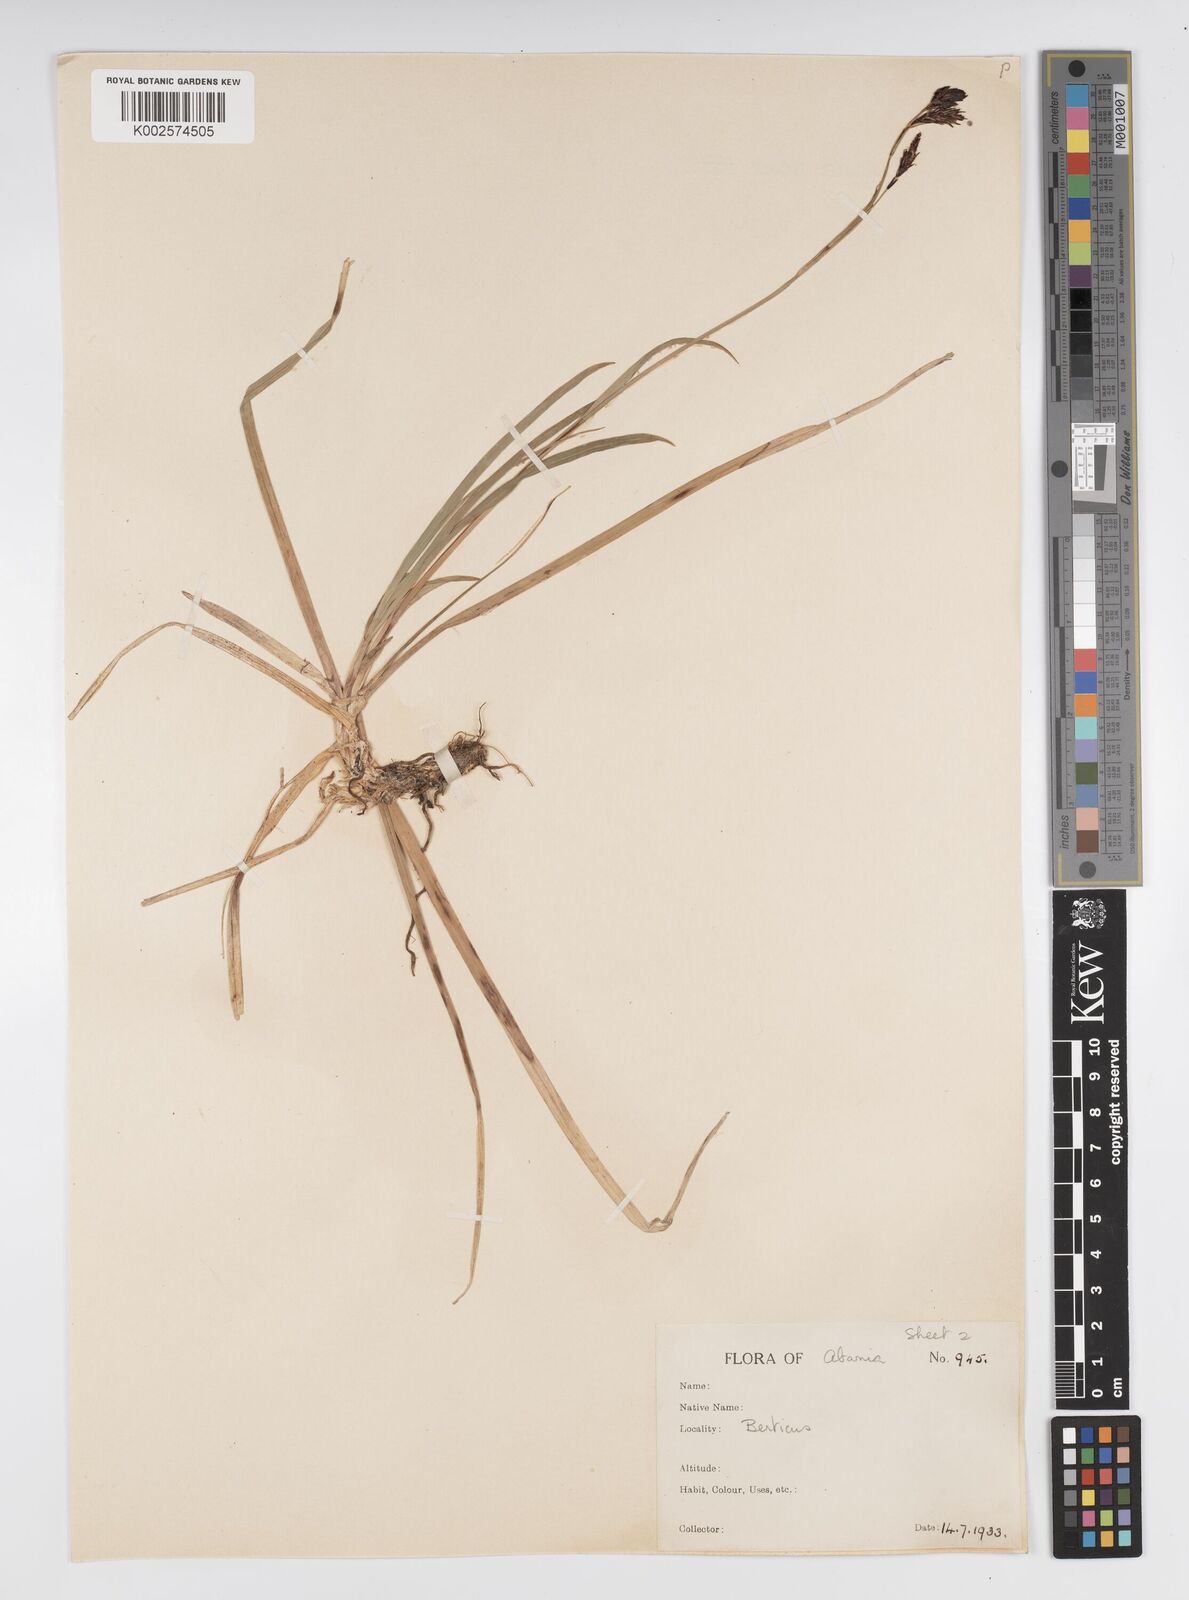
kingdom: Plantae
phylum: Tracheophyta
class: Liliopsida
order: Poales
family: Cyperaceae
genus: Carex
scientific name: Carex sempervirens
